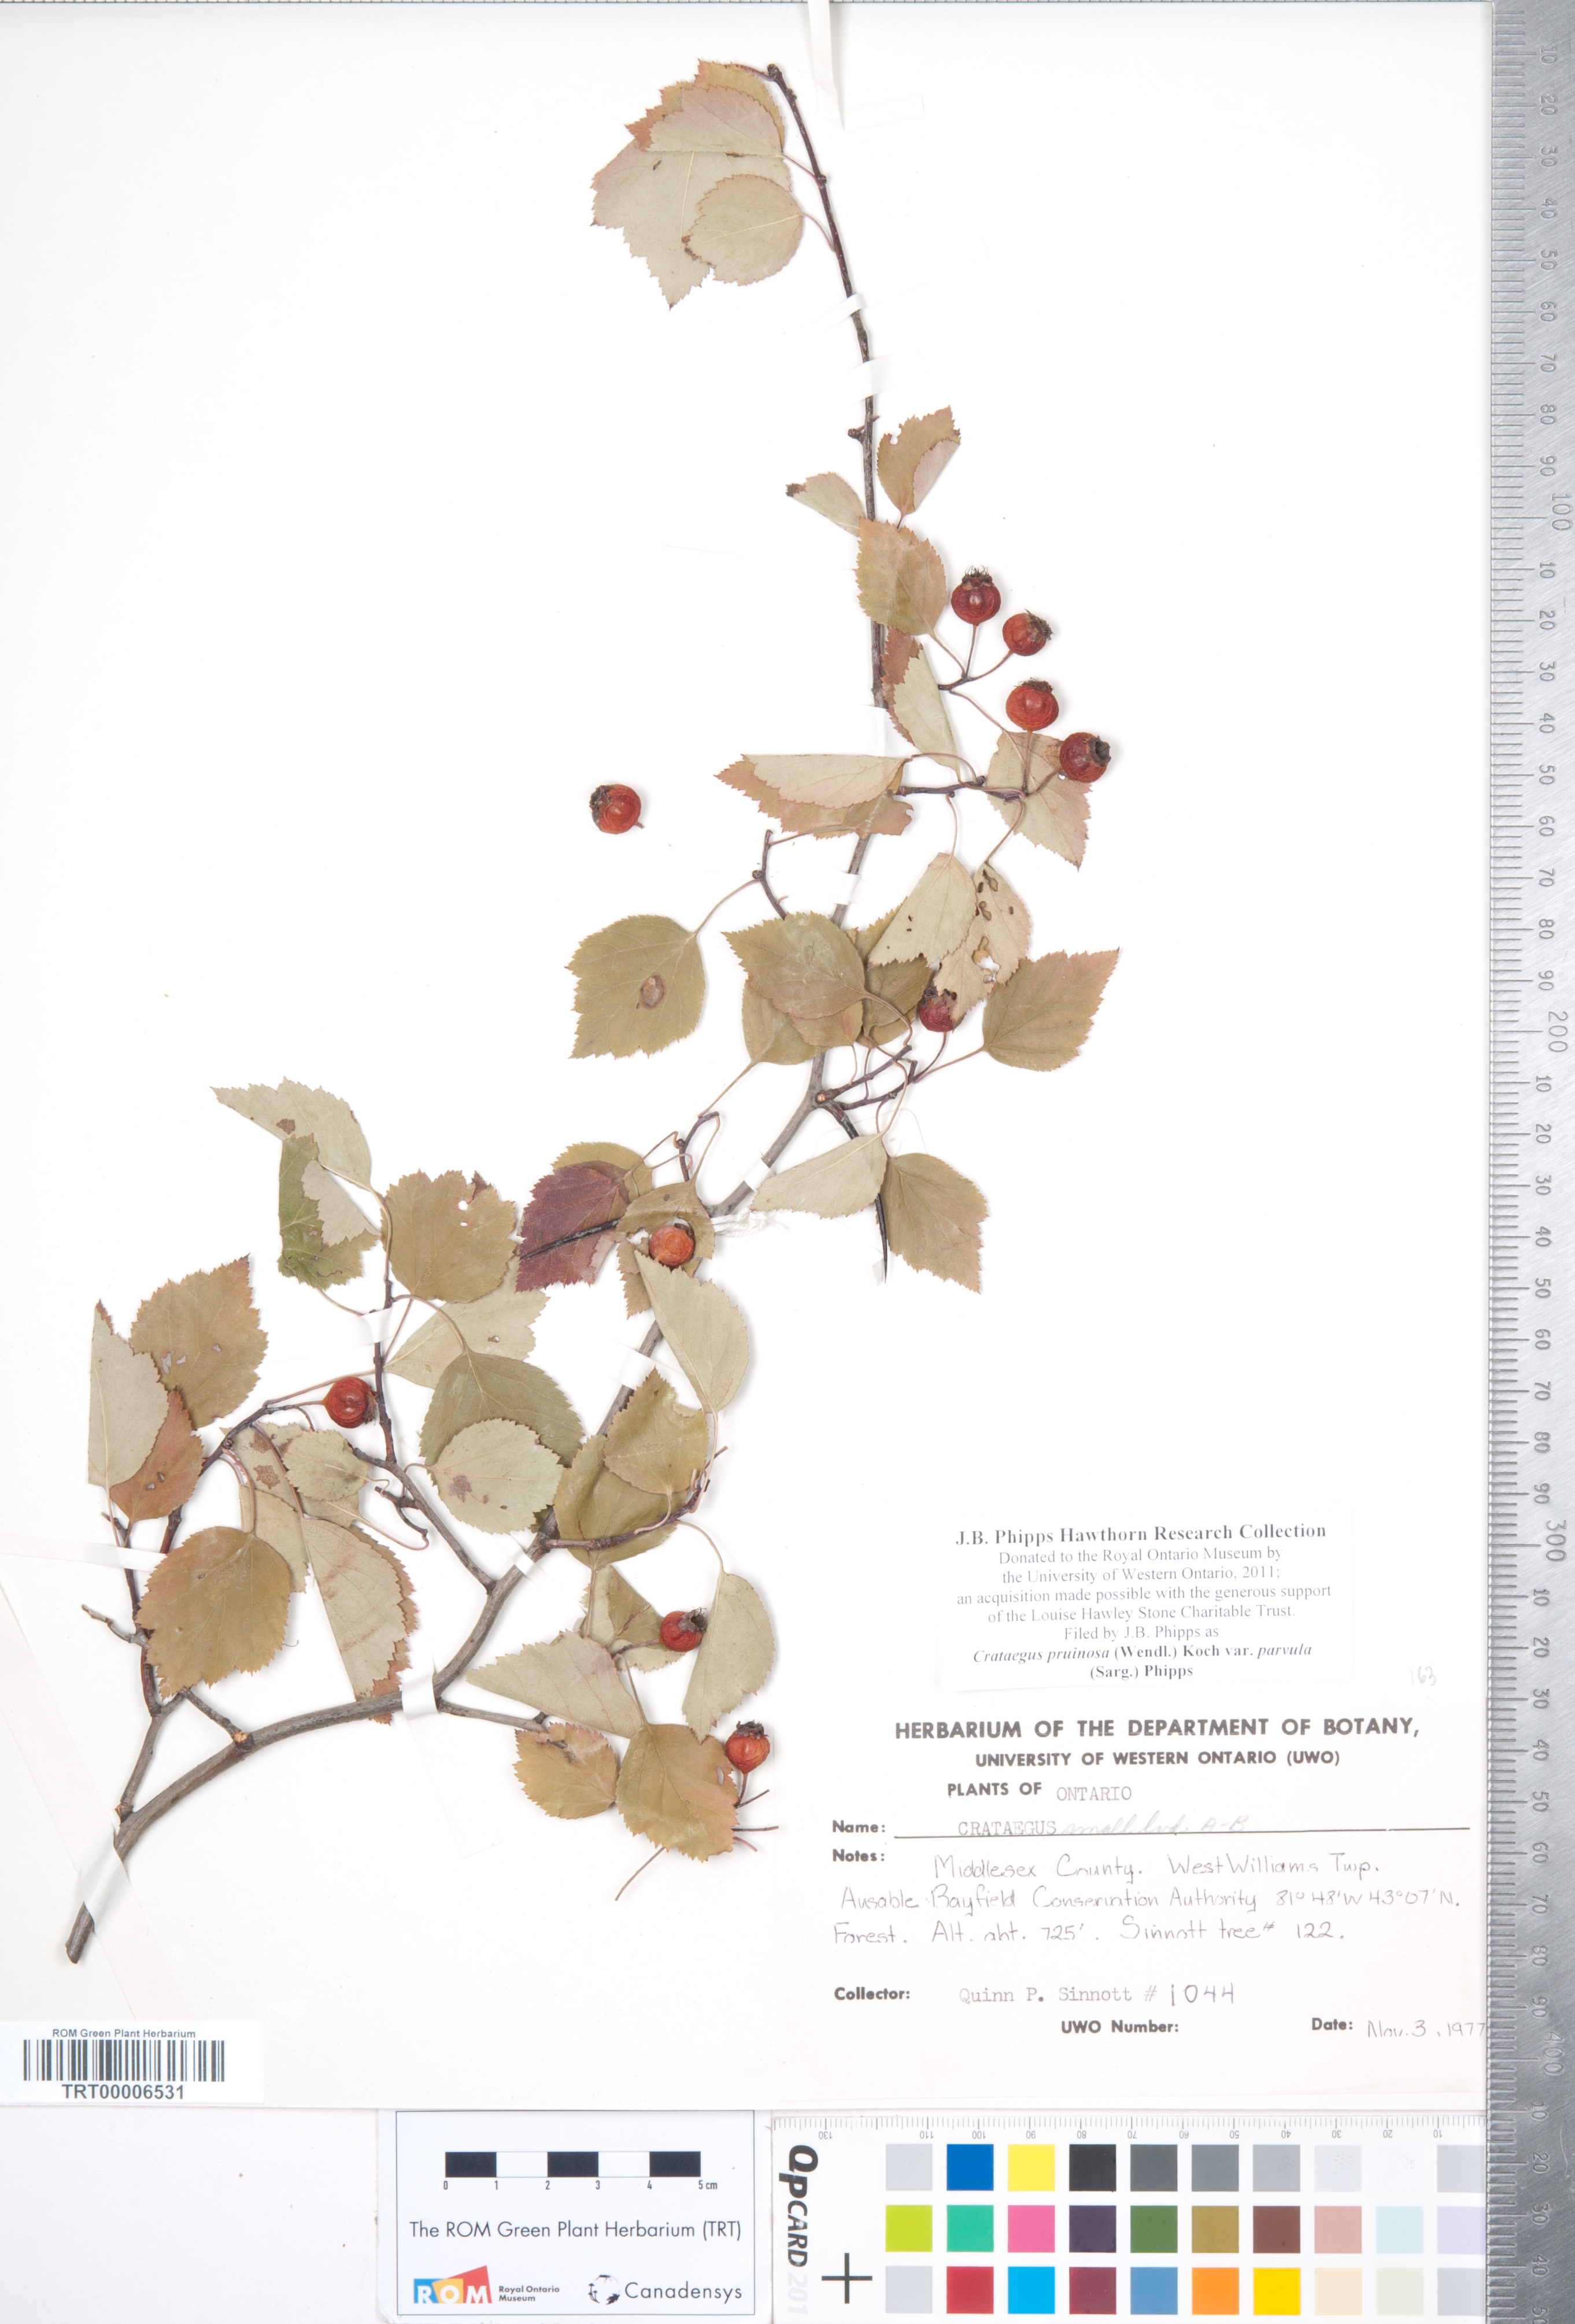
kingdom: Plantae
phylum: Tracheophyta
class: Magnoliopsida
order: Rosales
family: Rosaceae
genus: Crataegus
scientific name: Crataegus pruinosa
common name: Waxy-fruit hawthorn
